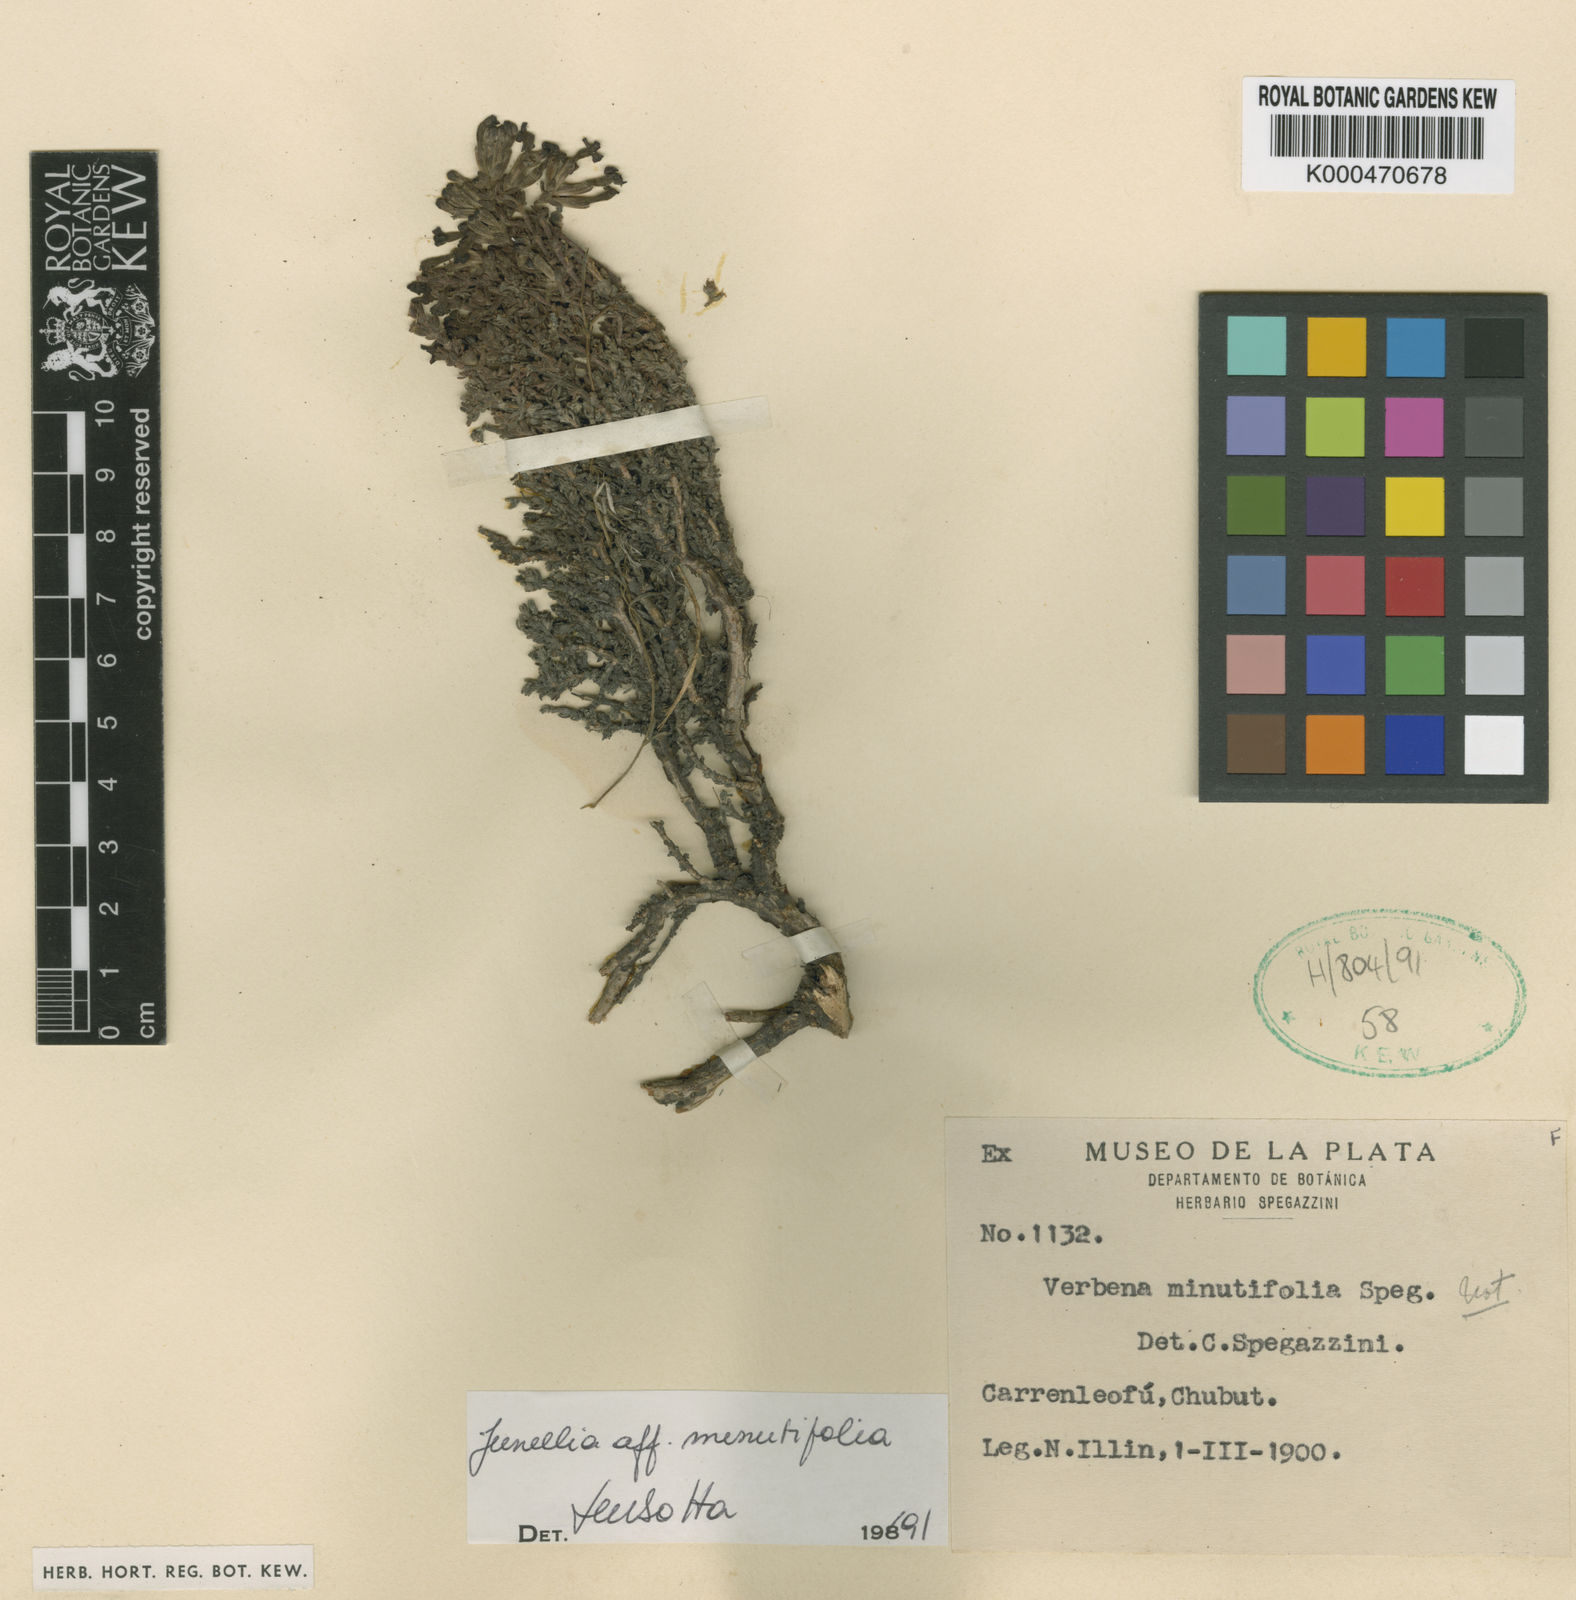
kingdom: Plantae
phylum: Tracheophyta
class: Magnoliopsida
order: Lamiales
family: Verbenaceae
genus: Junellia
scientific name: Junellia
